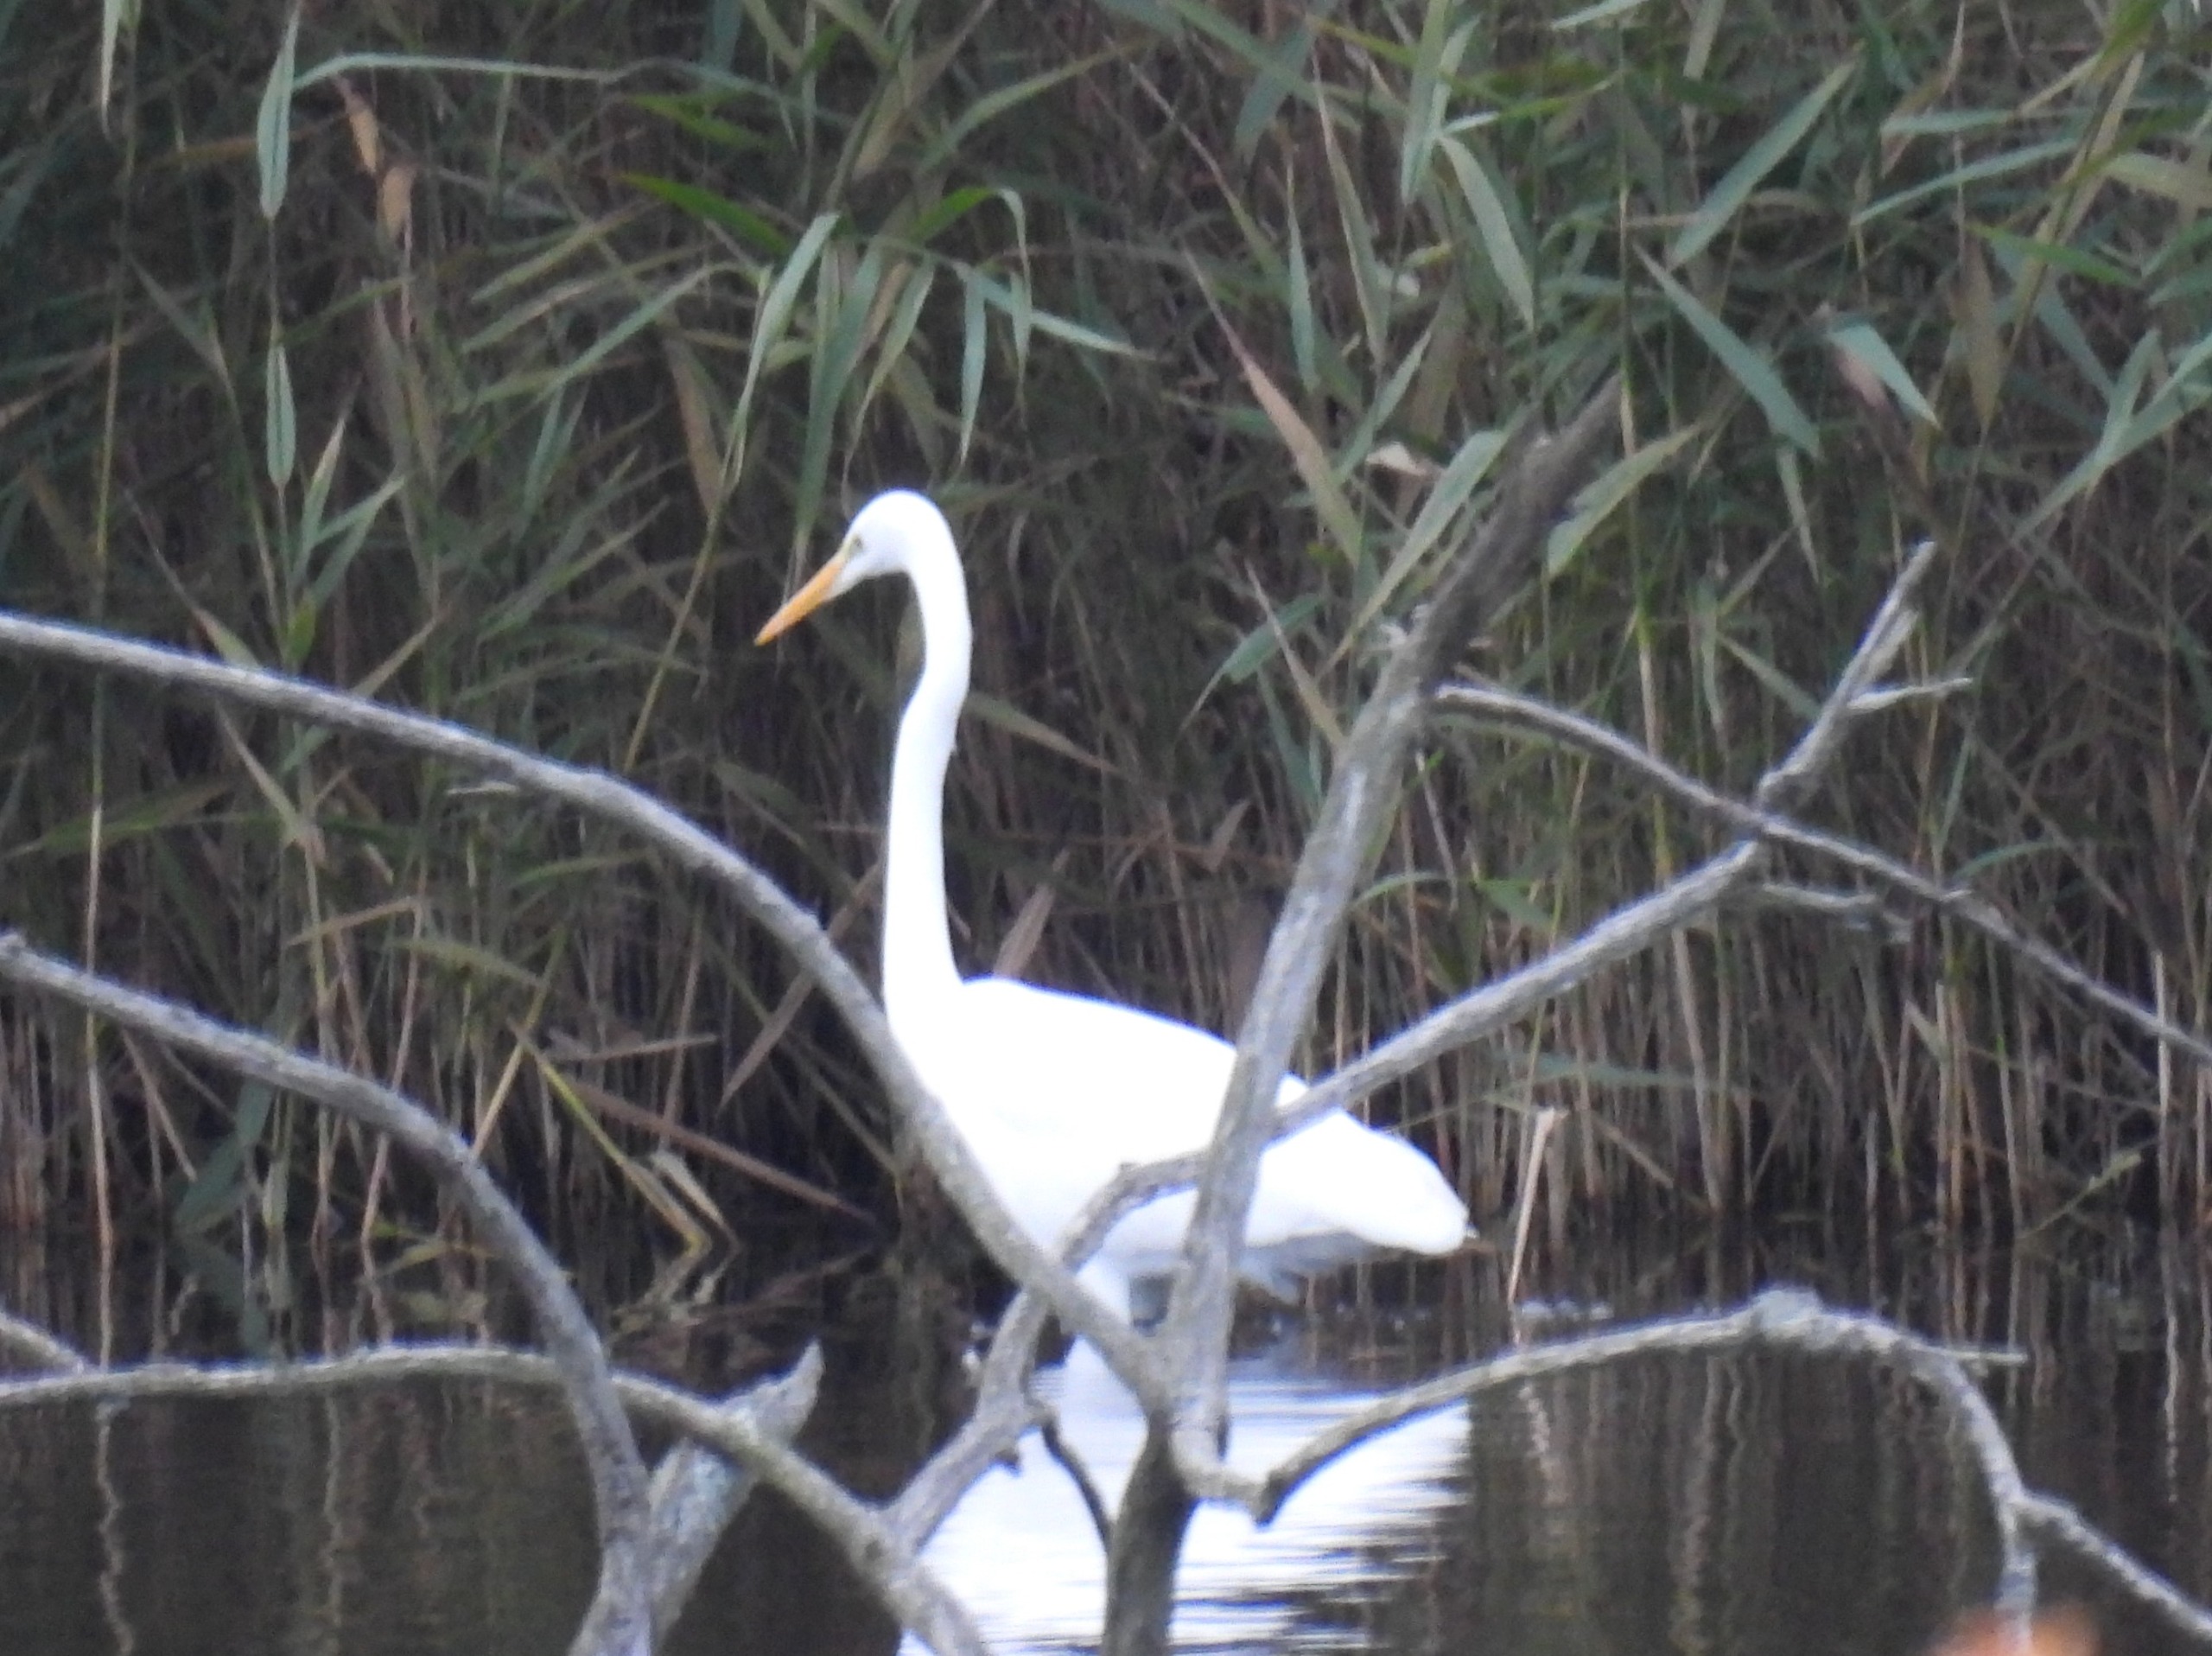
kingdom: Animalia
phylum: Chordata
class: Aves
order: Pelecaniformes
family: Ardeidae
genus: Ardea
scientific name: Ardea alba
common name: Sølvhejre
